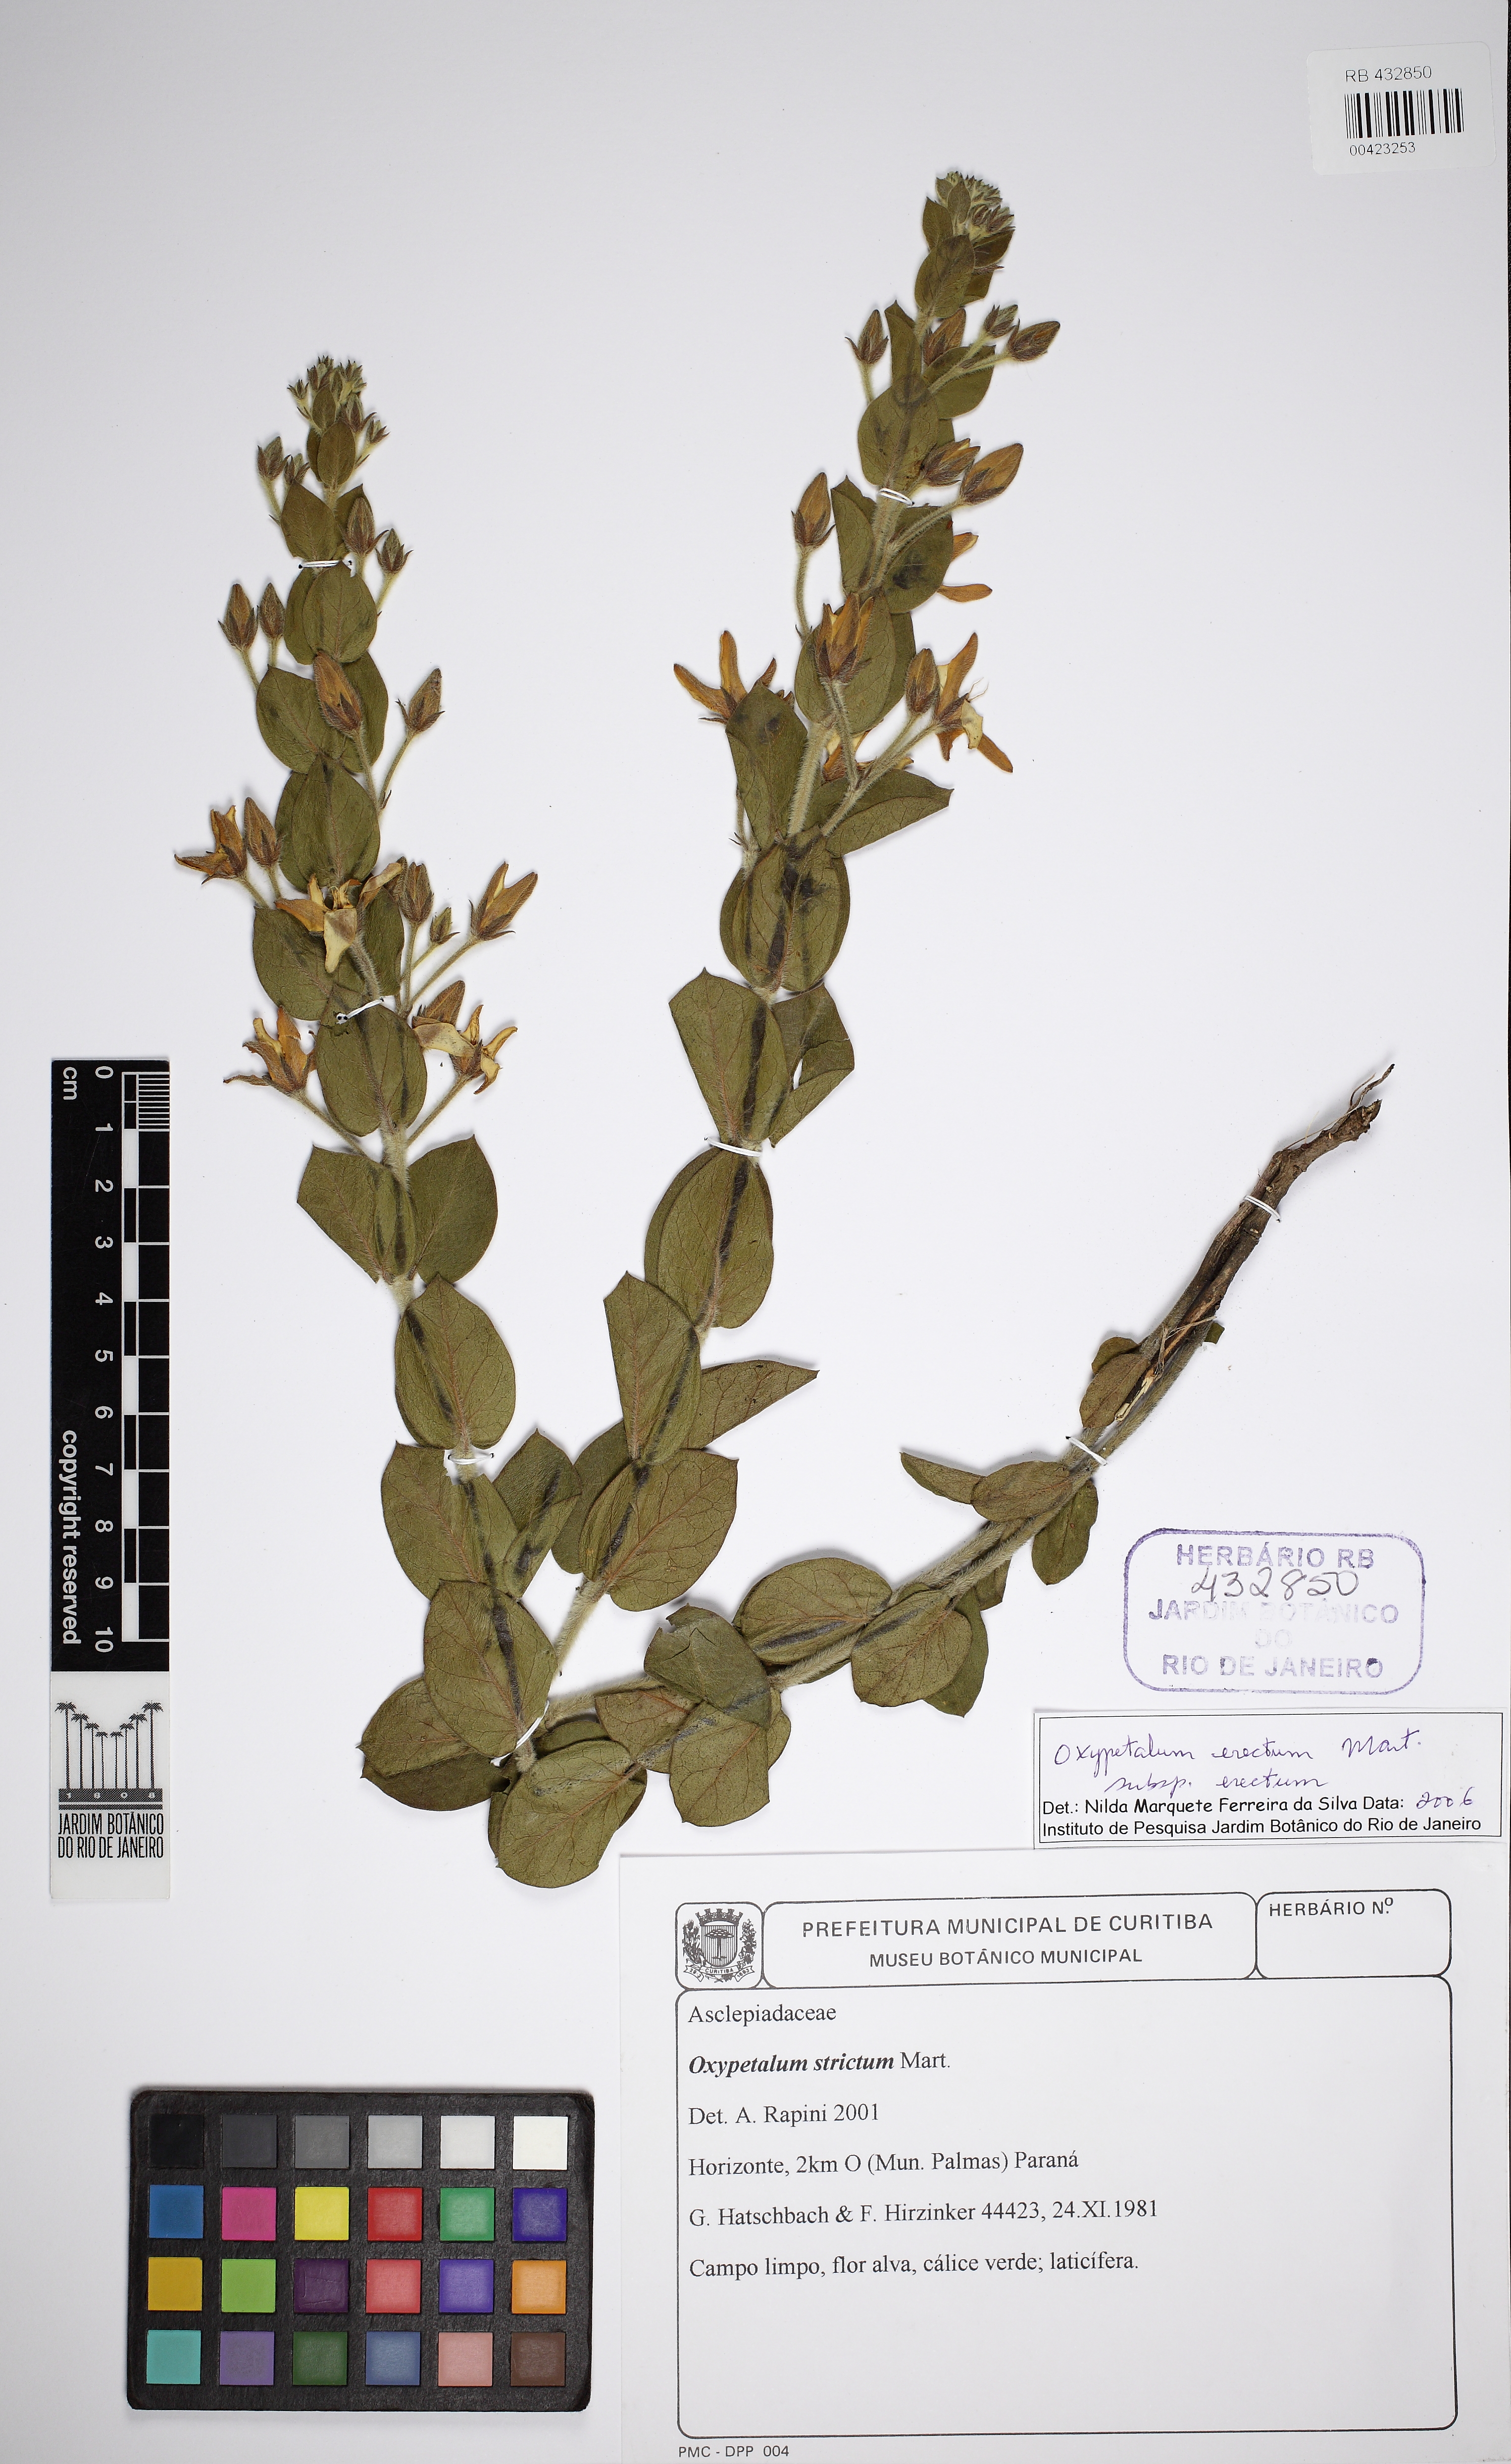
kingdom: Plantae
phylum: Tracheophyta
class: Magnoliopsida
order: Gentianales
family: Apocynaceae
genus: Oxypetalum
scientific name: Oxypetalum erectum
